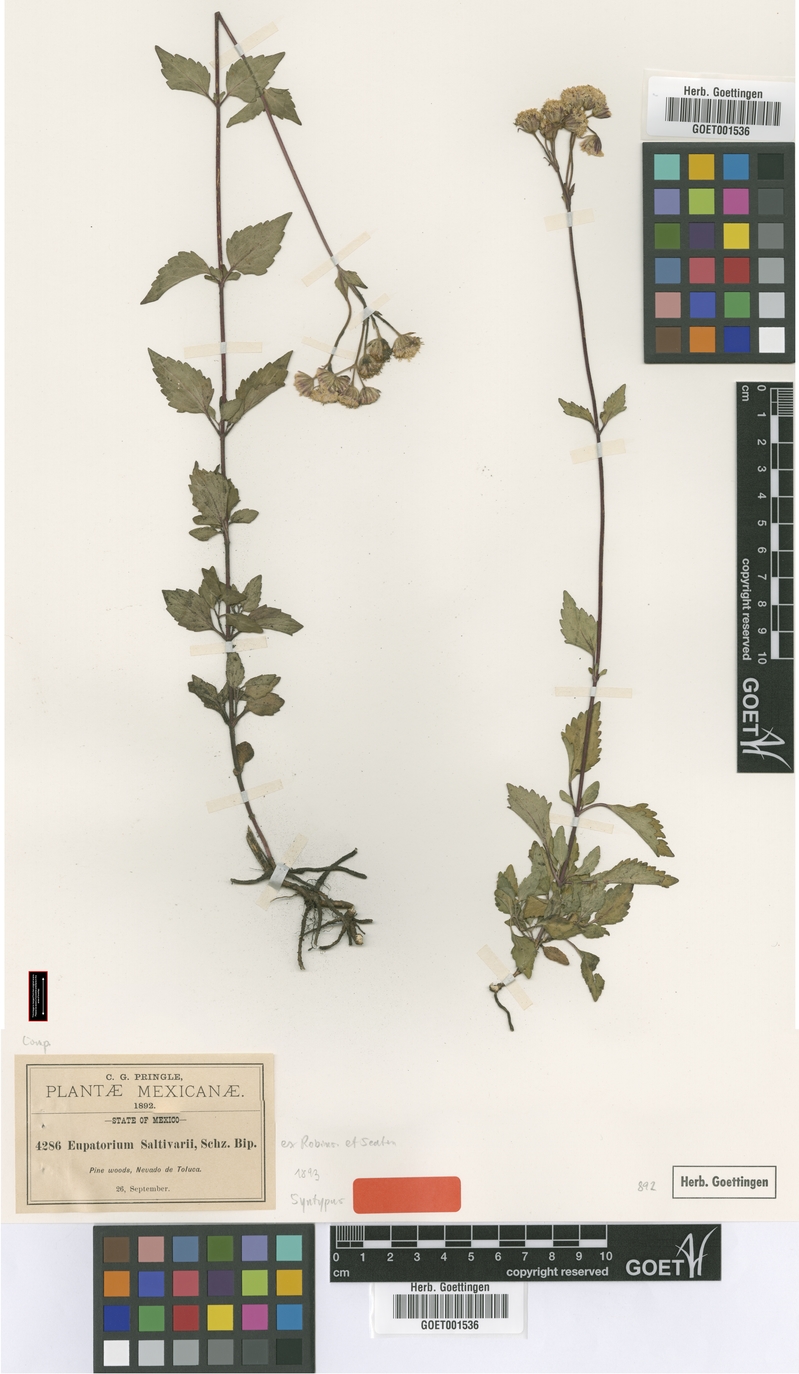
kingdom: Plantae
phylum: Tracheophyta
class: Magnoliopsida
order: Asterales
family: Asteraceae
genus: Ageratina
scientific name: Ageratina prunellifolia
